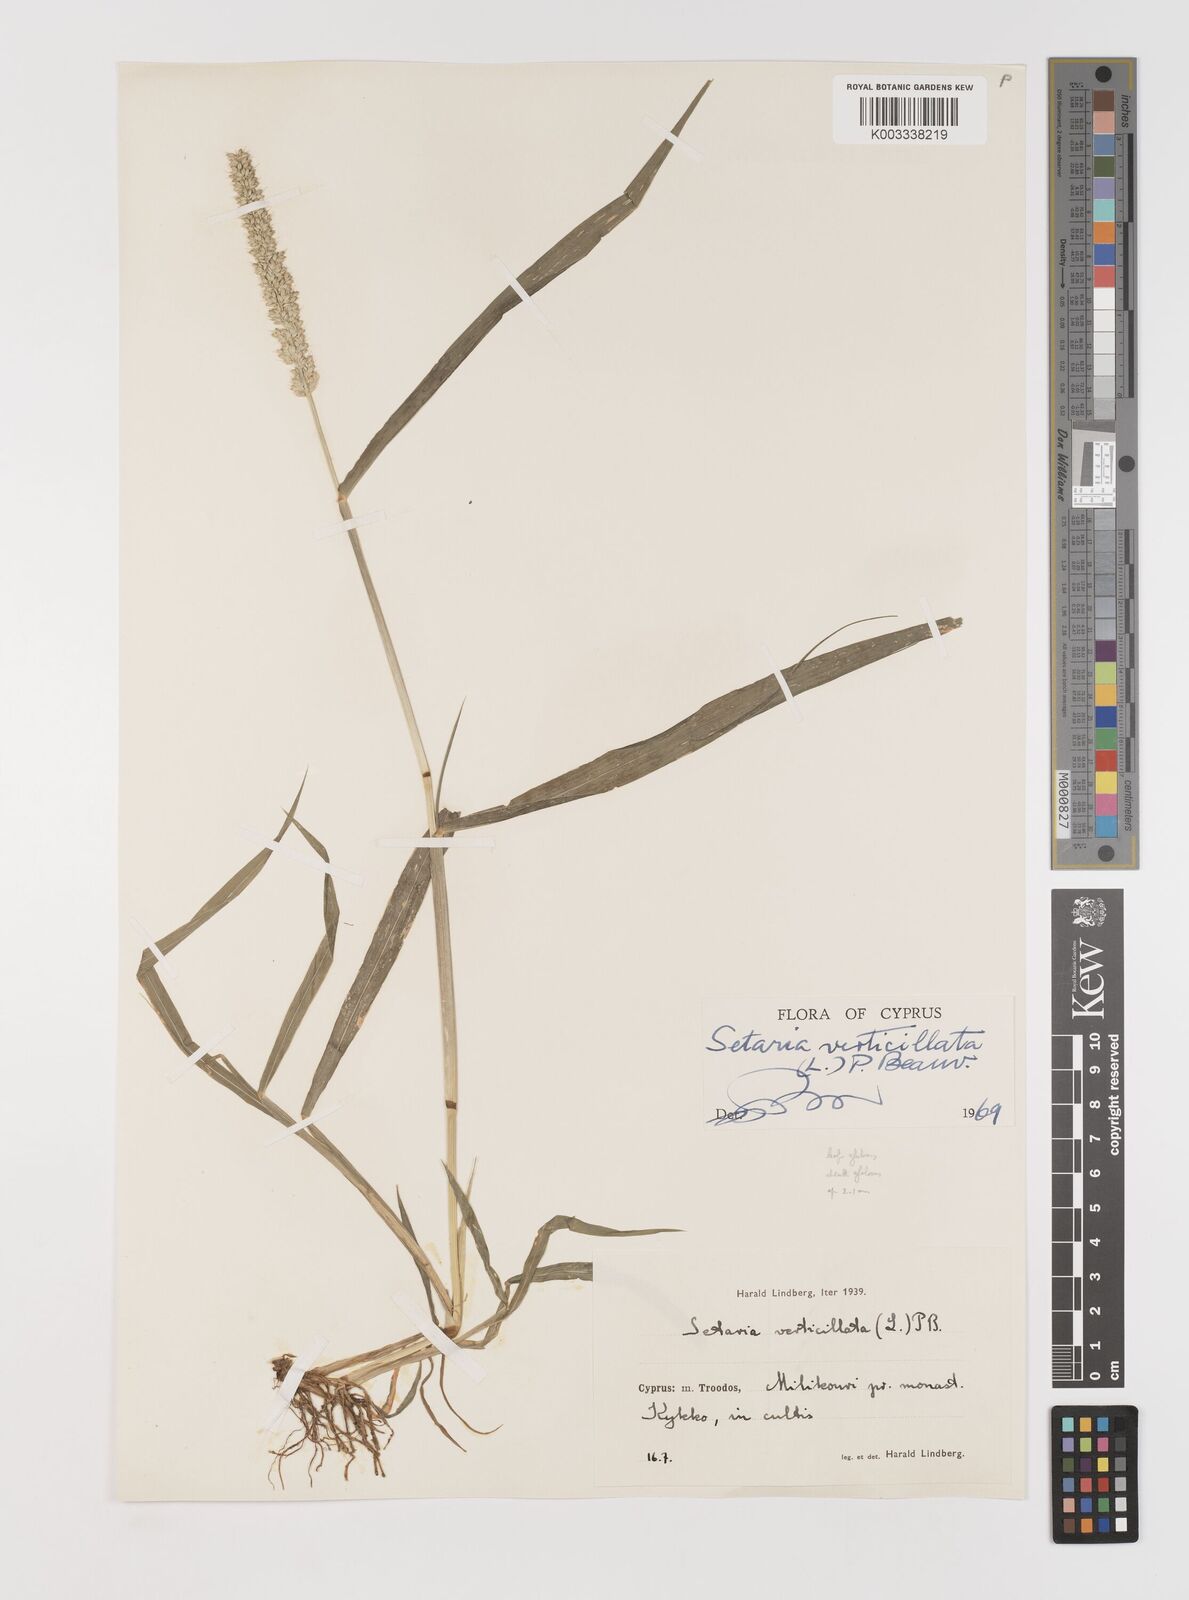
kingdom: Plantae
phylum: Tracheophyta
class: Liliopsida
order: Poales
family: Poaceae
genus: Setaria
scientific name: Setaria verticillata
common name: Hooked bristlegrass
